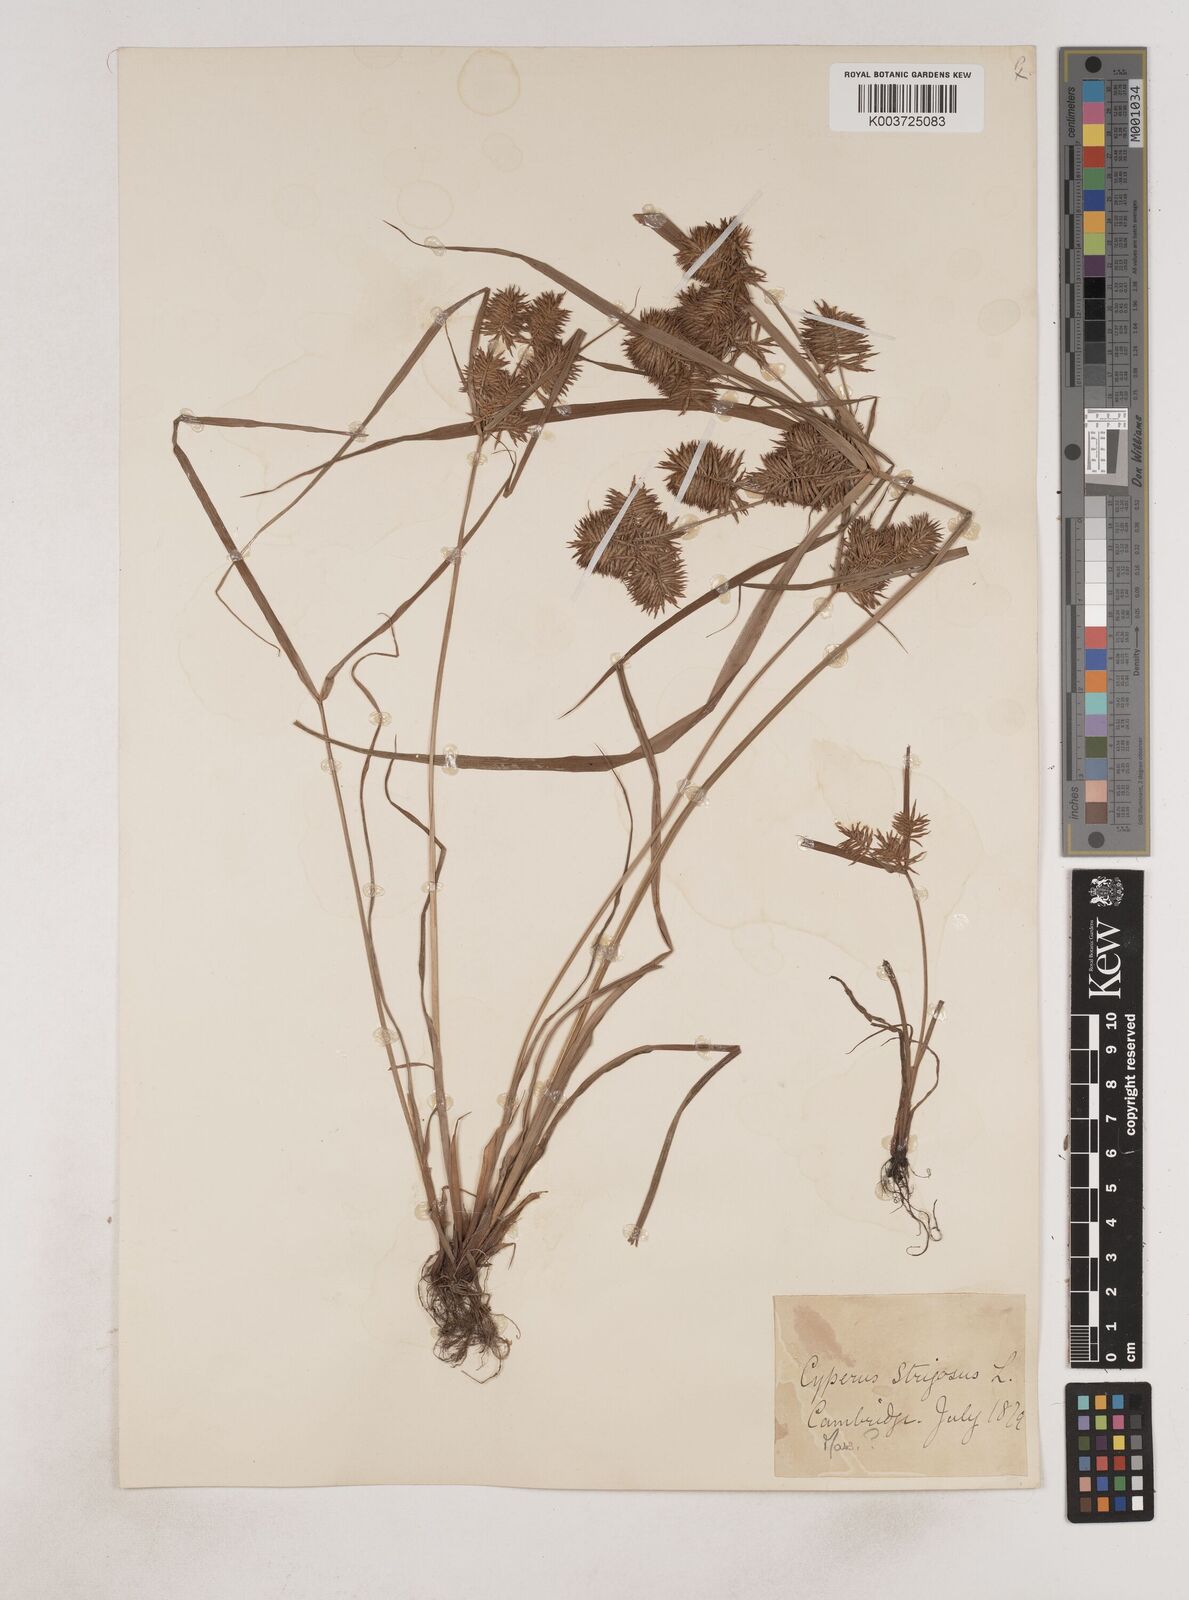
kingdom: Plantae
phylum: Tracheophyta
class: Liliopsida
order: Poales
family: Cyperaceae
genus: Cyperus
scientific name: Cyperus strigosus
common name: False nutsedge
